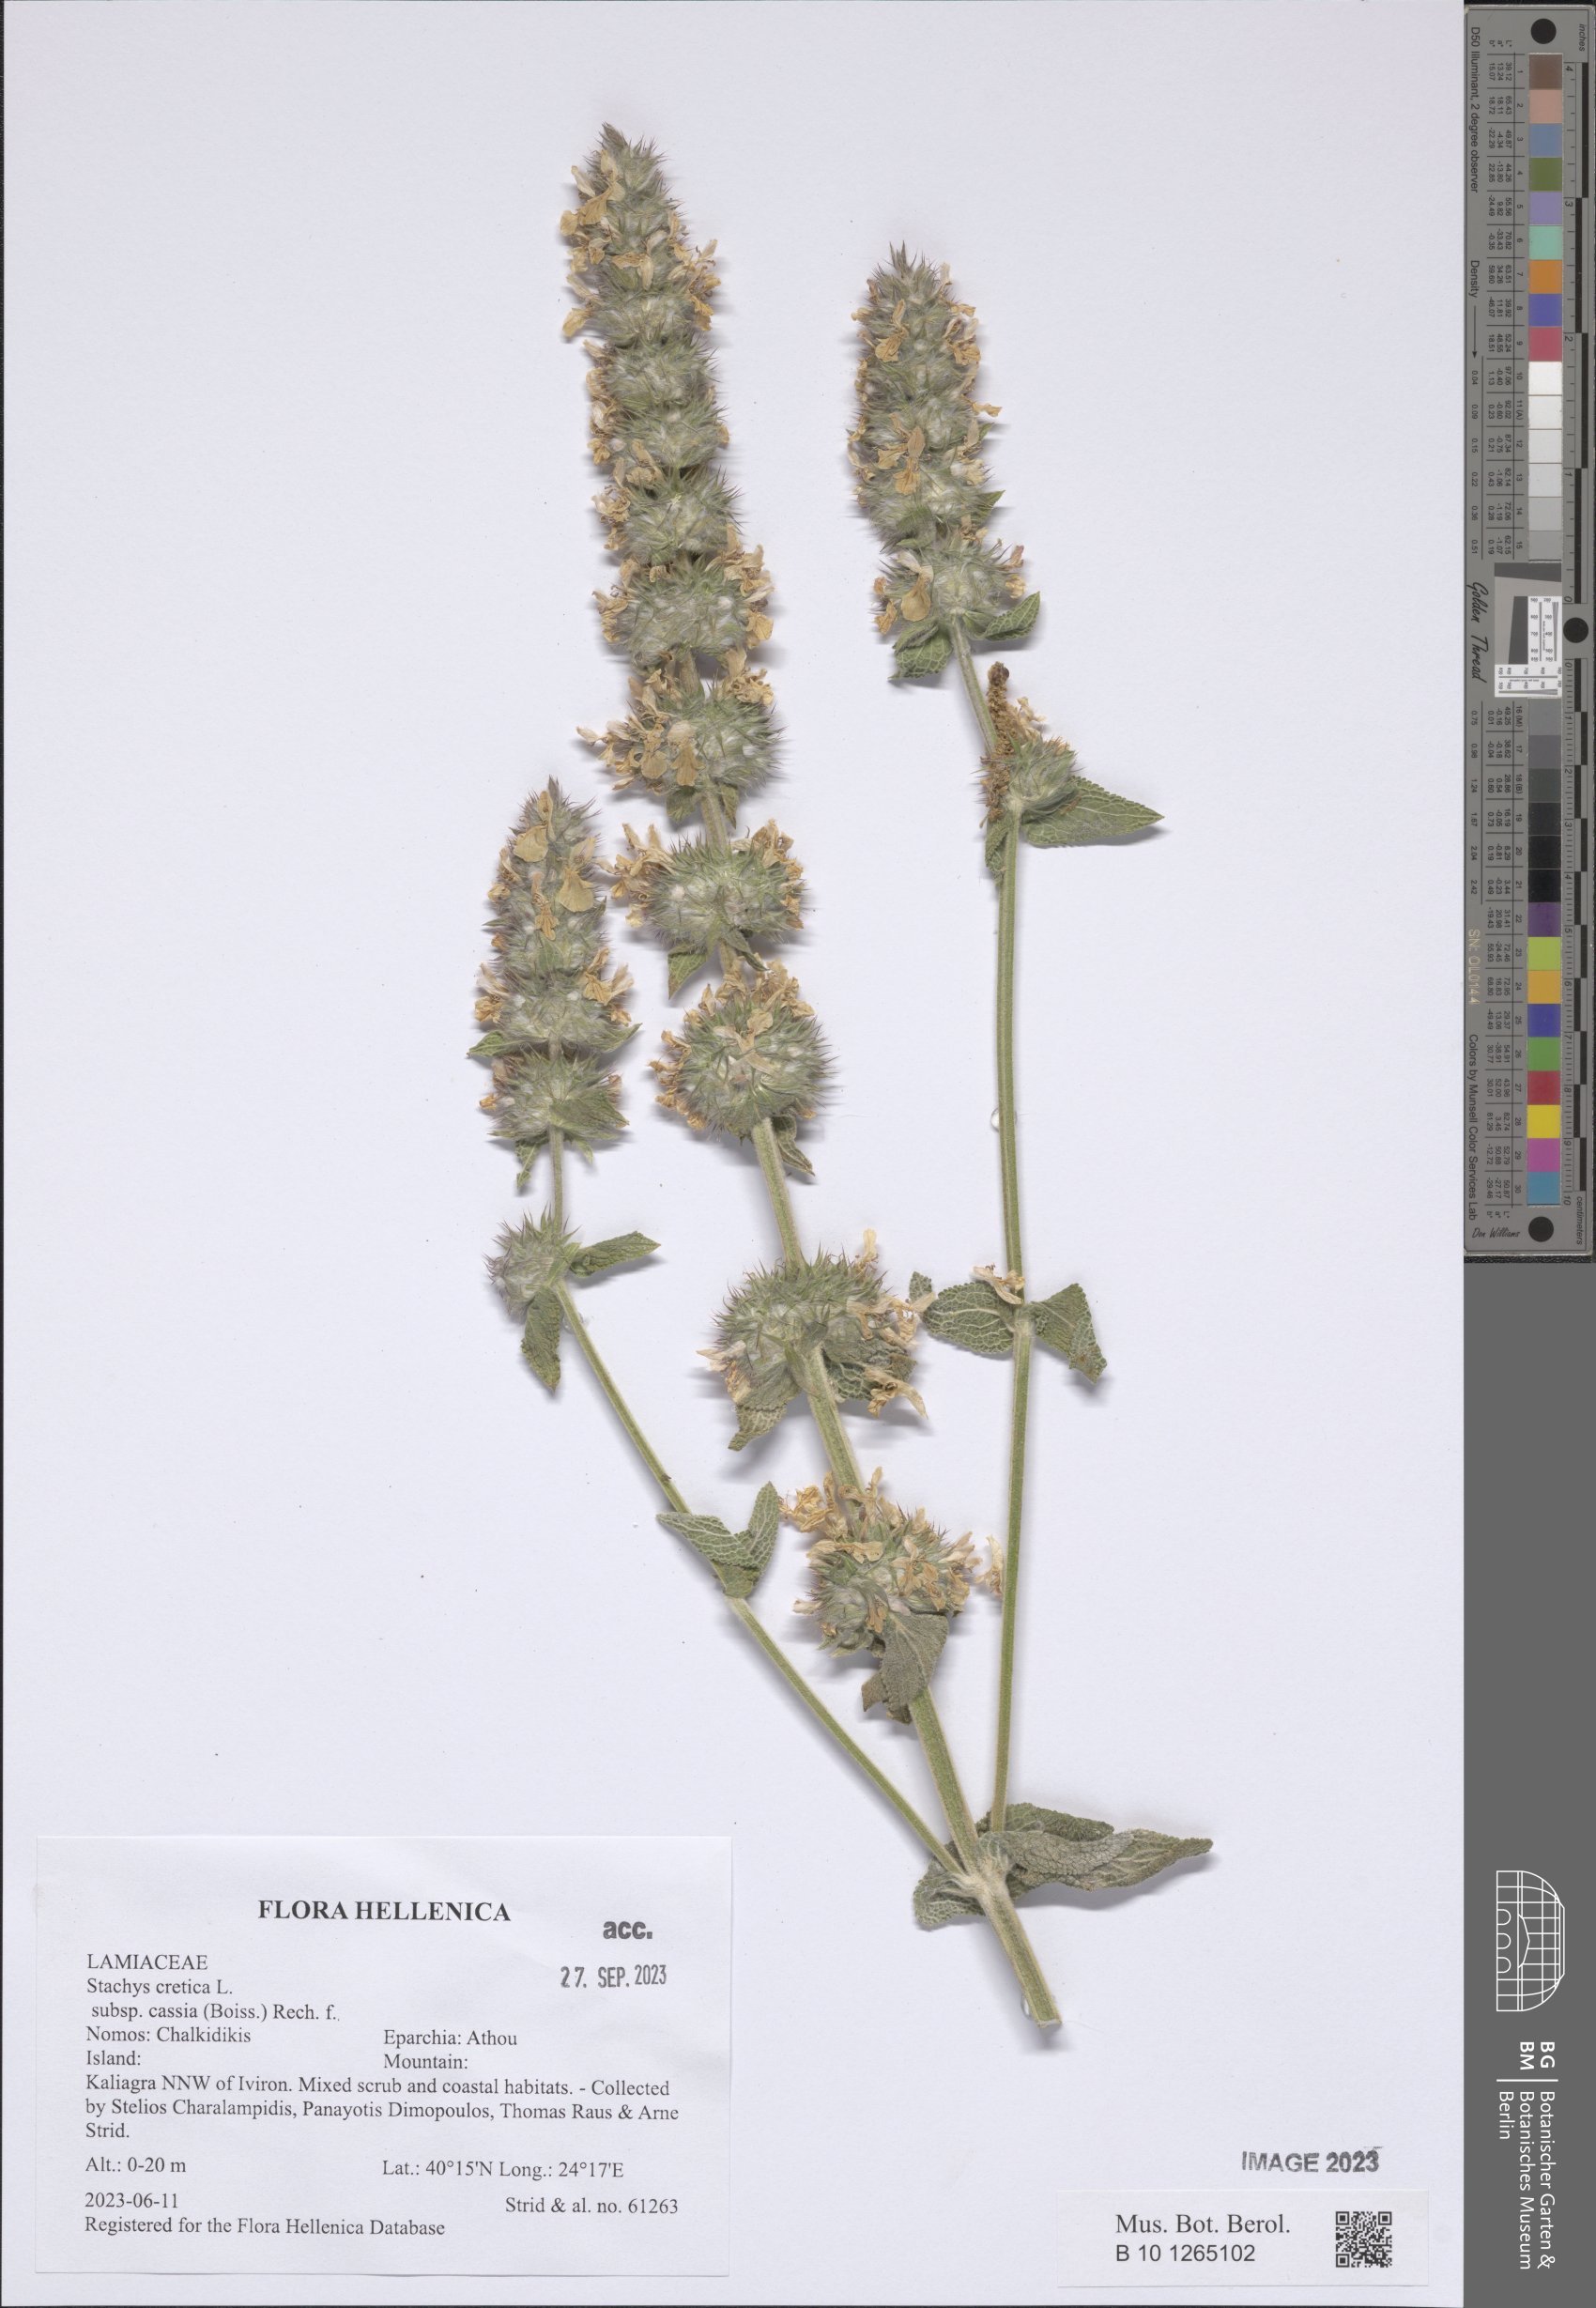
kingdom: Plantae
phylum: Tracheophyta
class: Magnoliopsida
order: Lamiales
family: Lamiaceae
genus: Stachys
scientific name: Stachys cretica
